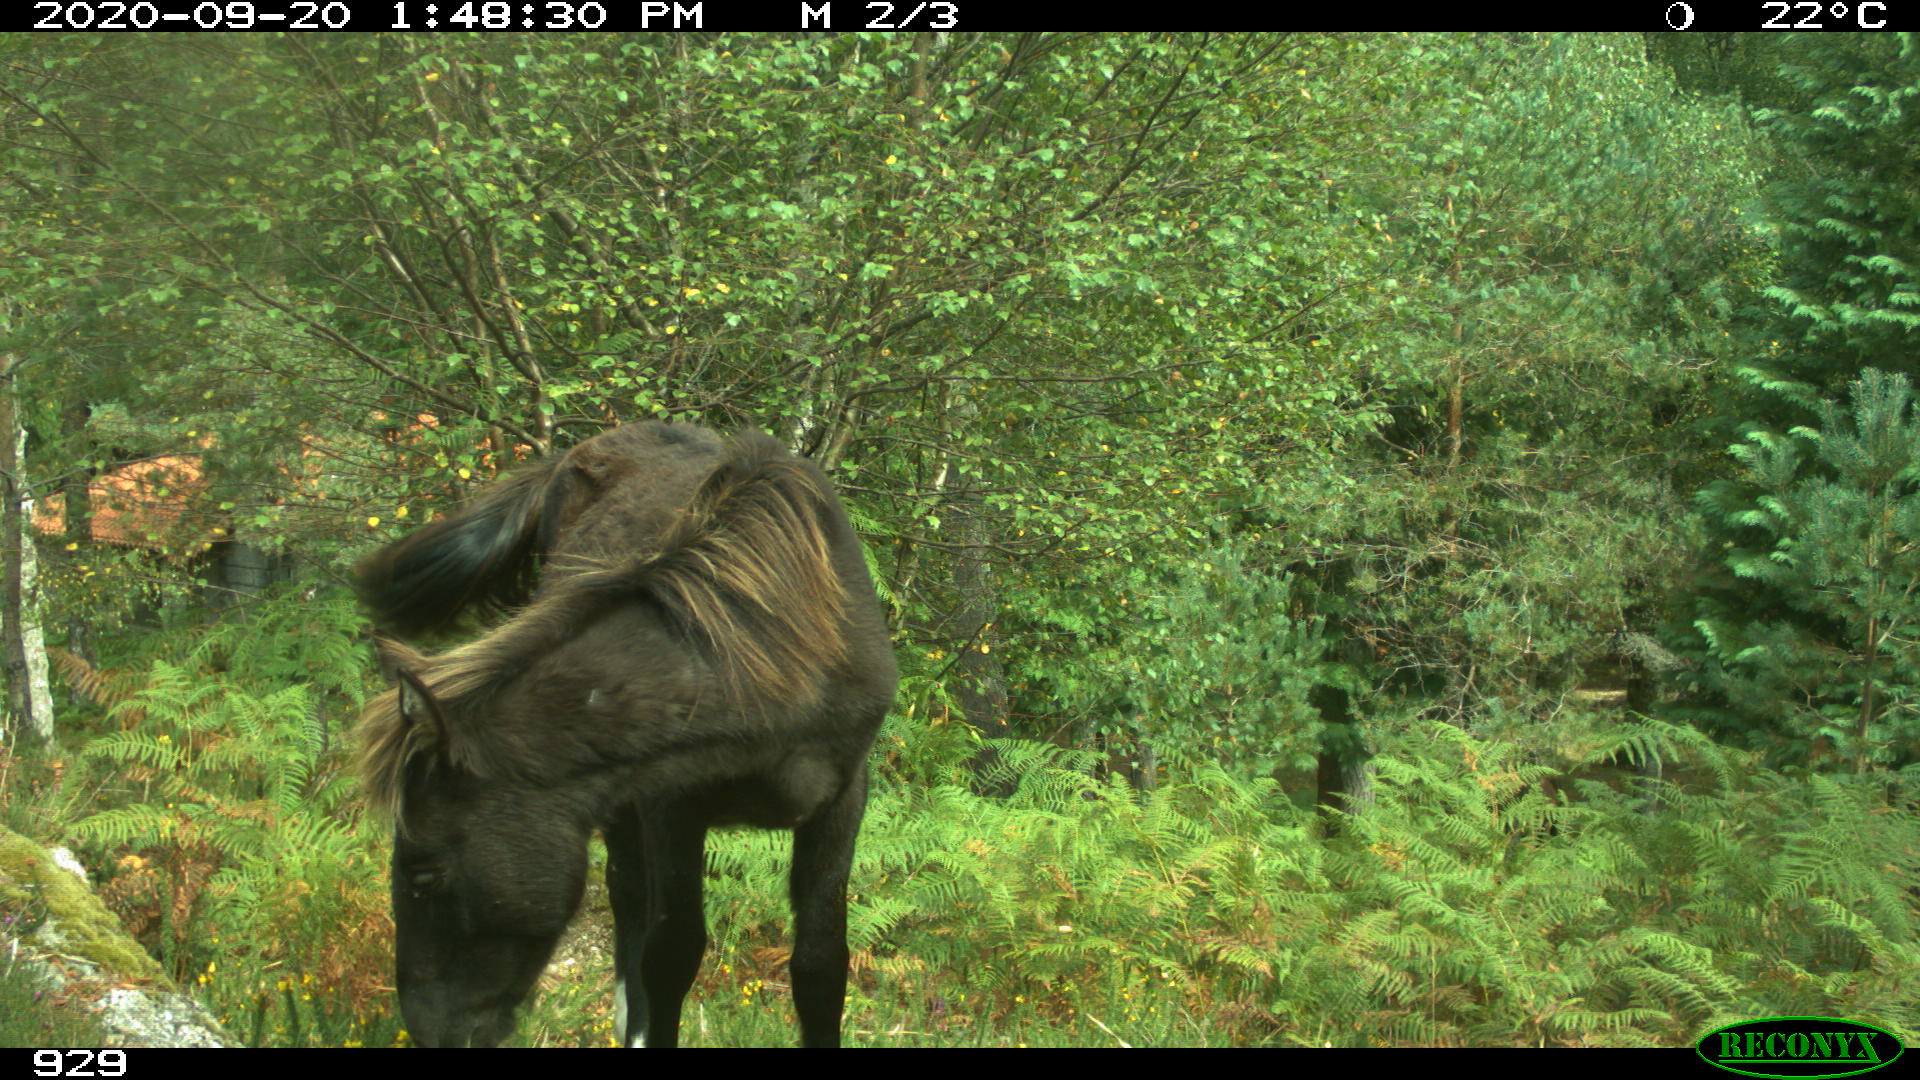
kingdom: Animalia
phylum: Chordata
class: Mammalia
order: Perissodactyla
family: Equidae
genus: Equus
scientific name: Equus caballus
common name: Horse
